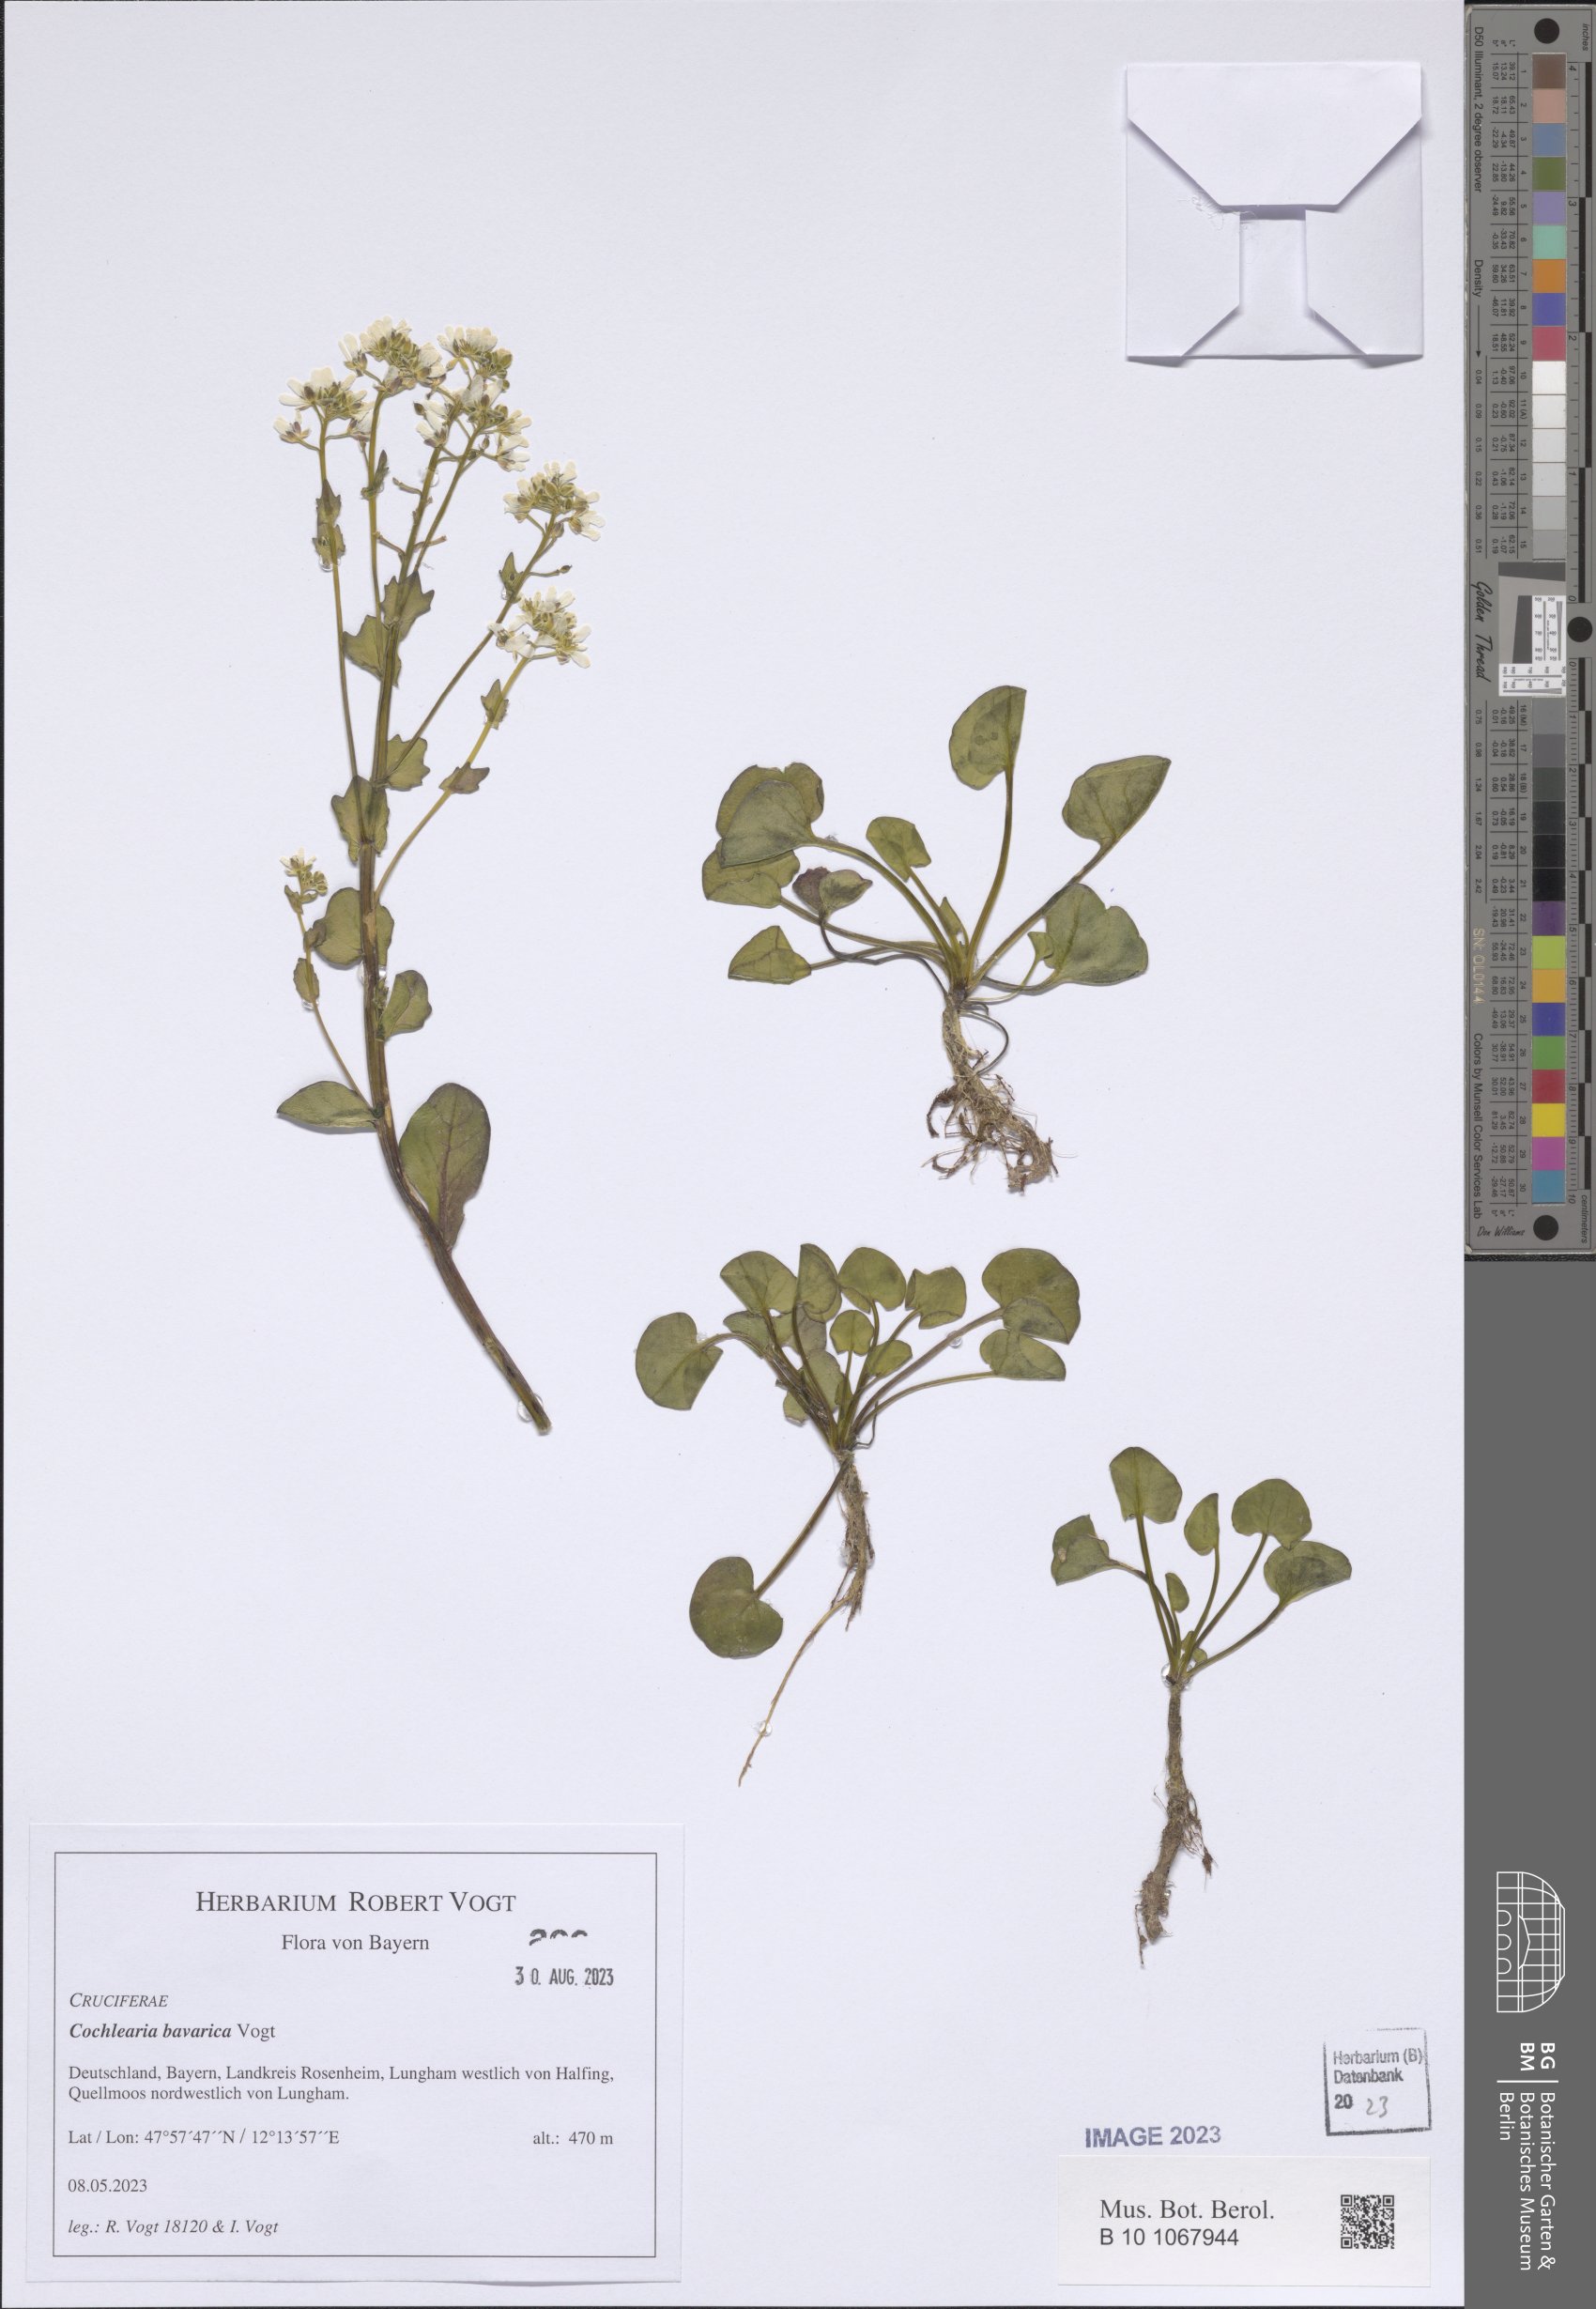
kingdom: Plantae
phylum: Tracheophyta
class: Magnoliopsida
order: Brassicales
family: Brassicaceae
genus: Cochlearia
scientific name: Cochlearia bavarica
